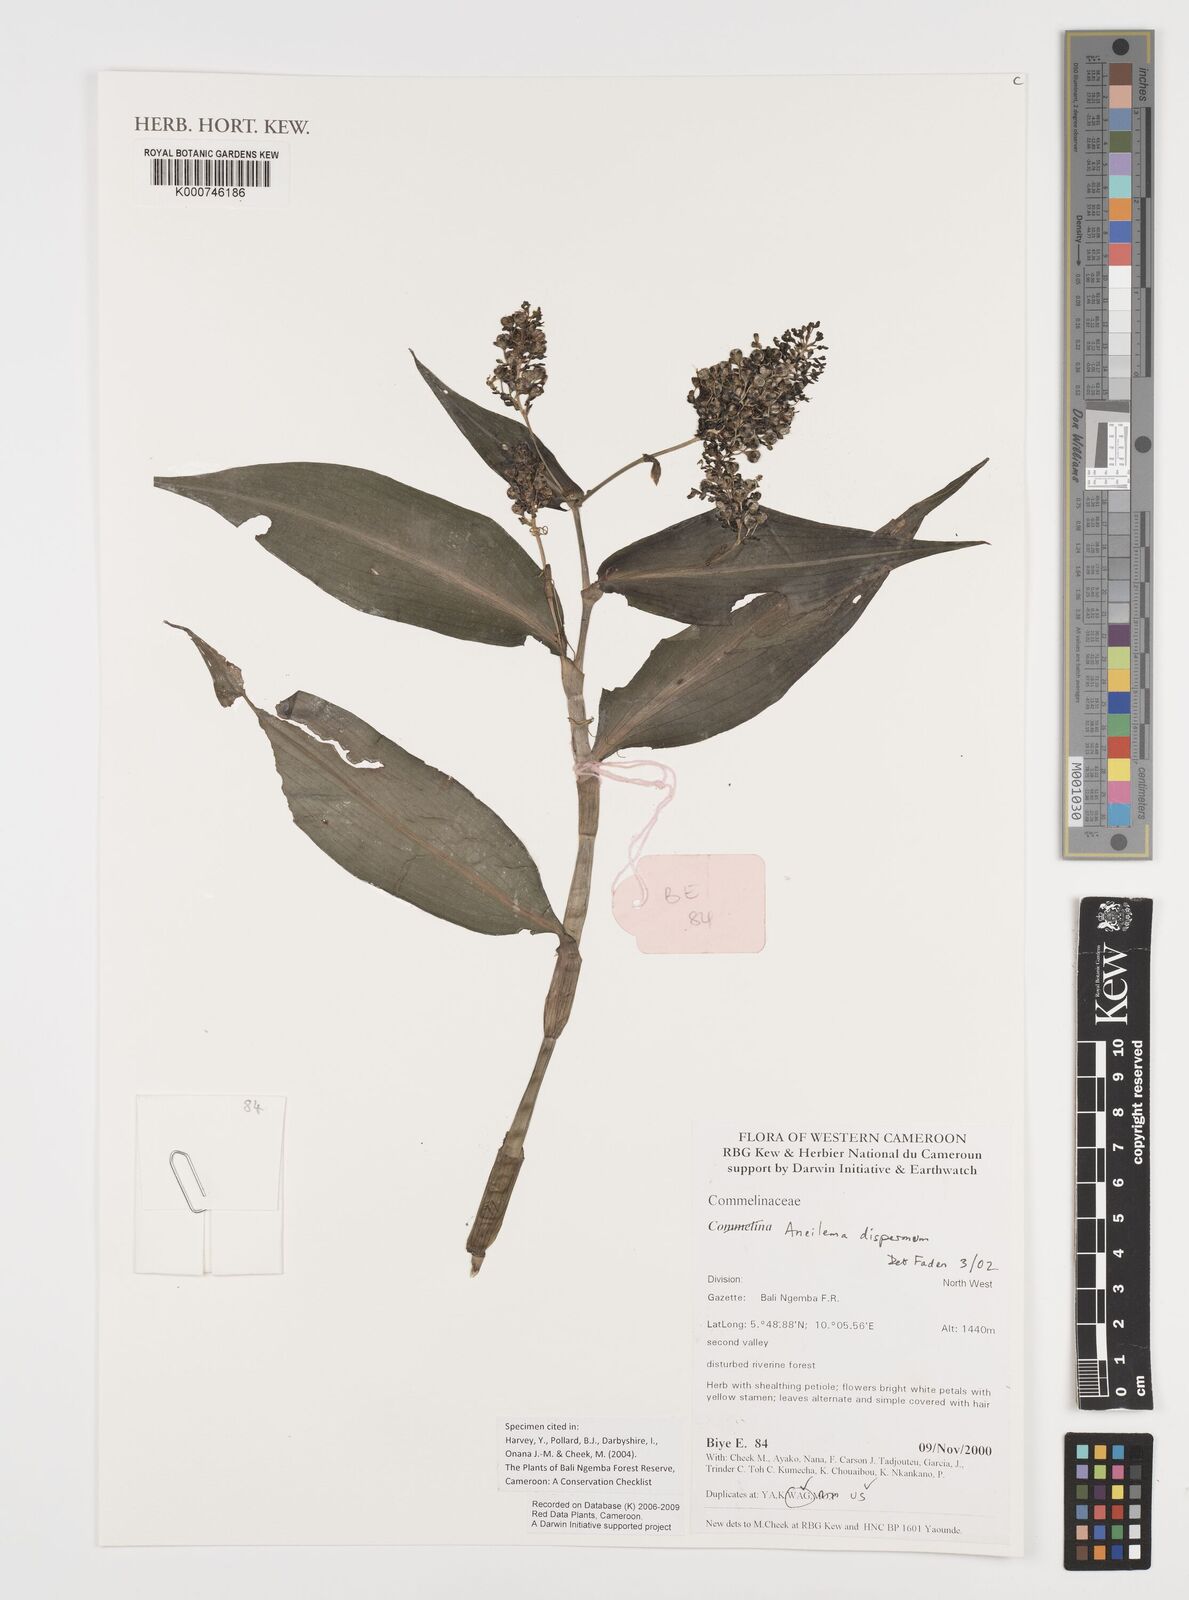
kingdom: Plantae
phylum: Tracheophyta
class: Liliopsida
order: Commelinales
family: Commelinaceae
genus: Aneilema
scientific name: Aneilema dispermum
